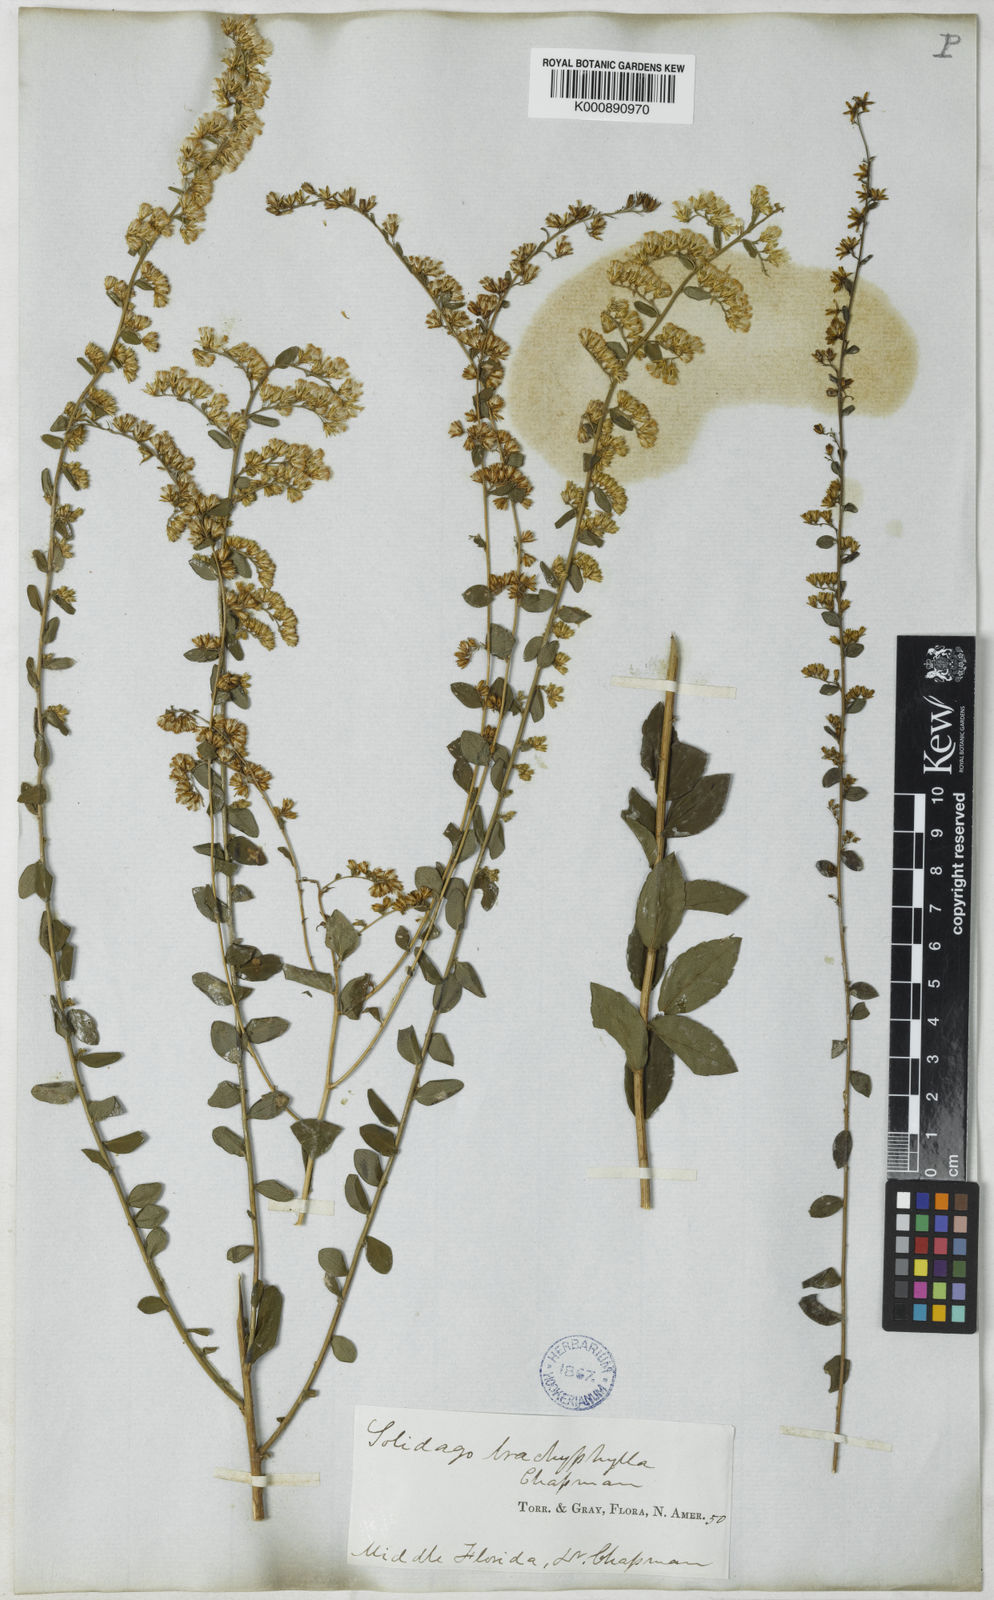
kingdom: Plantae
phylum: Tracheophyta
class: Magnoliopsida
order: Asterales
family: Asteraceae
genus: Solidago
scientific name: Solidago brachyphylla
